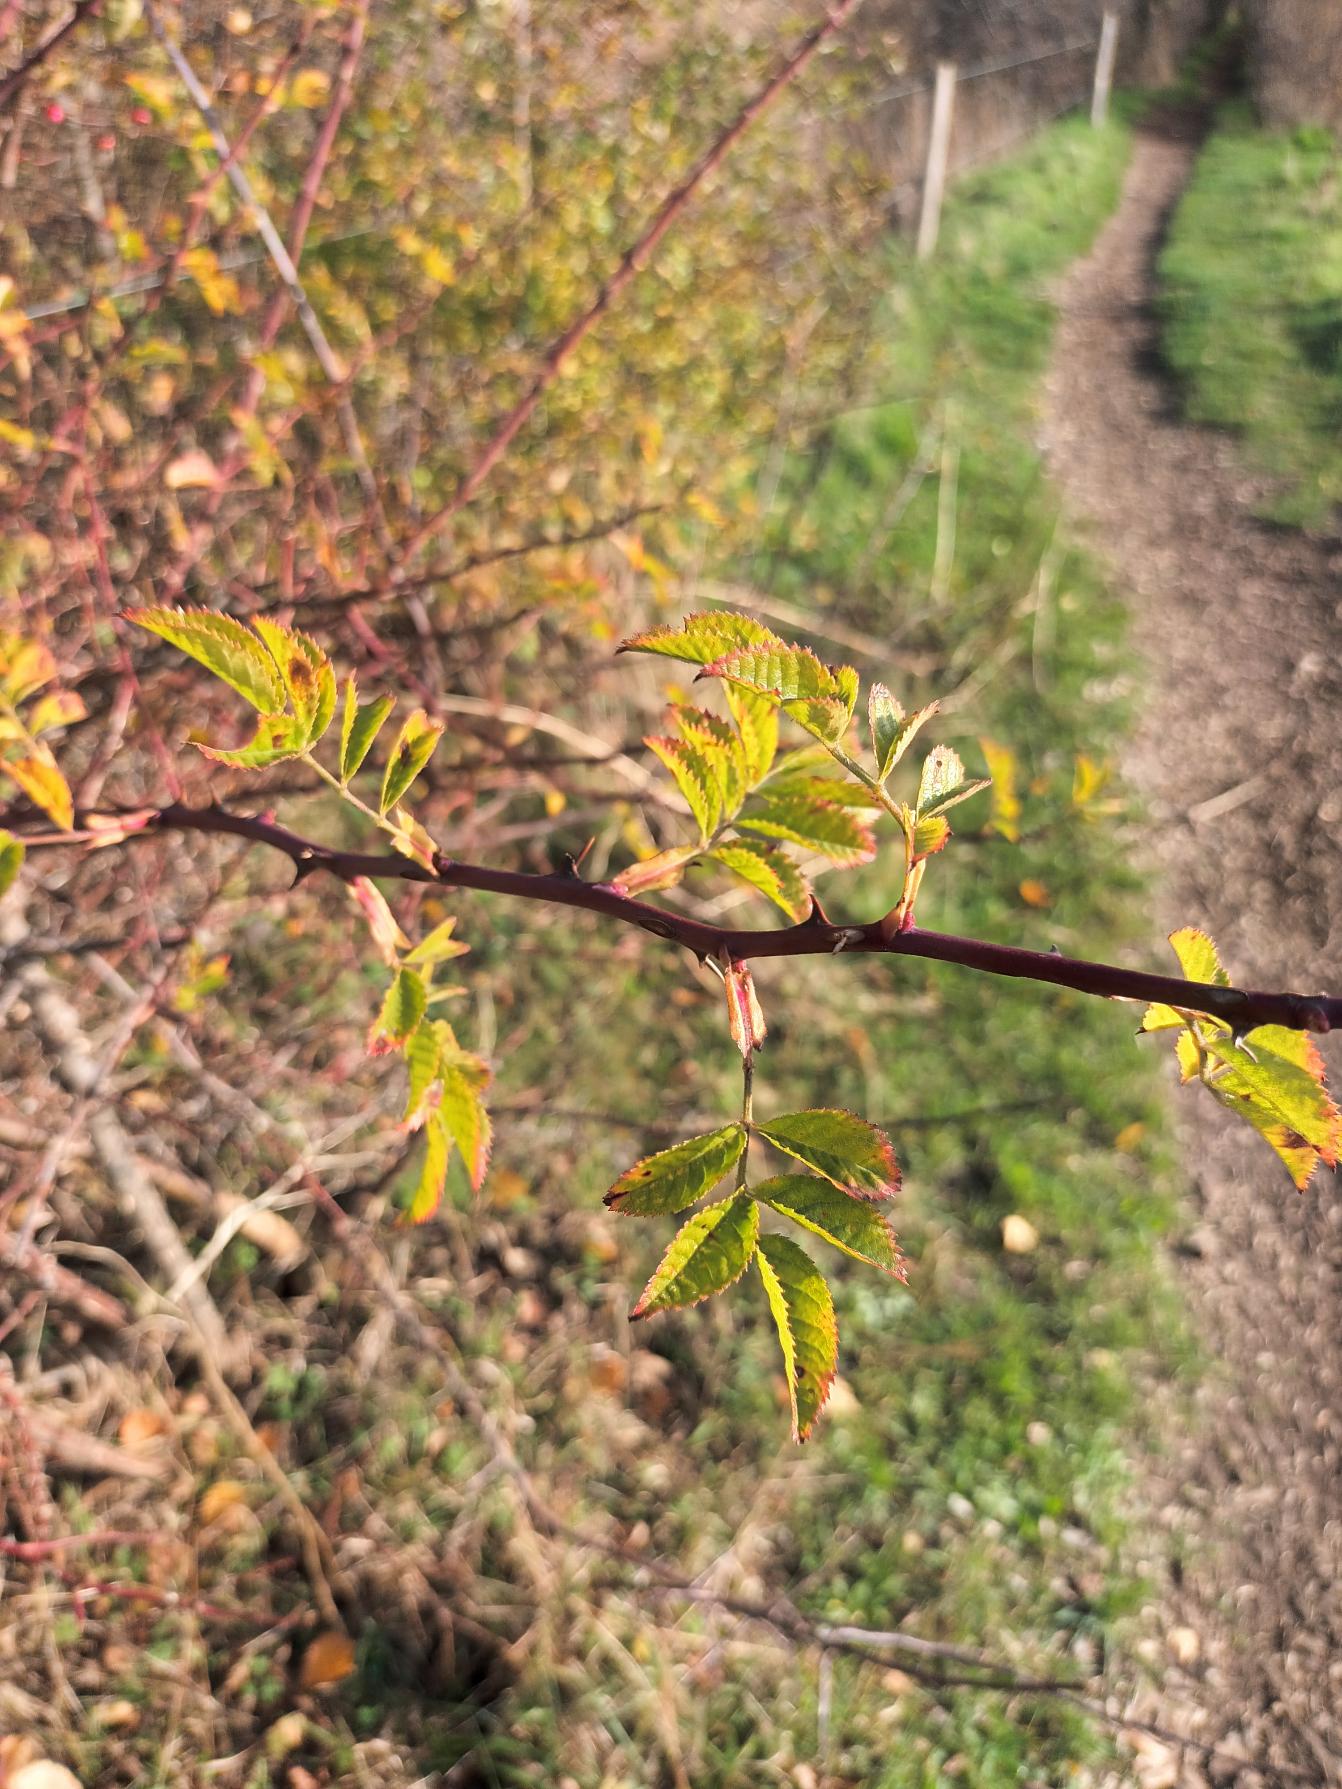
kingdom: Plantae
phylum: Tracheophyta
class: Magnoliopsida
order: Rosales
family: Rosaceae
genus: Rosa
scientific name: Rosa canina
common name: Glat hunde-rose
